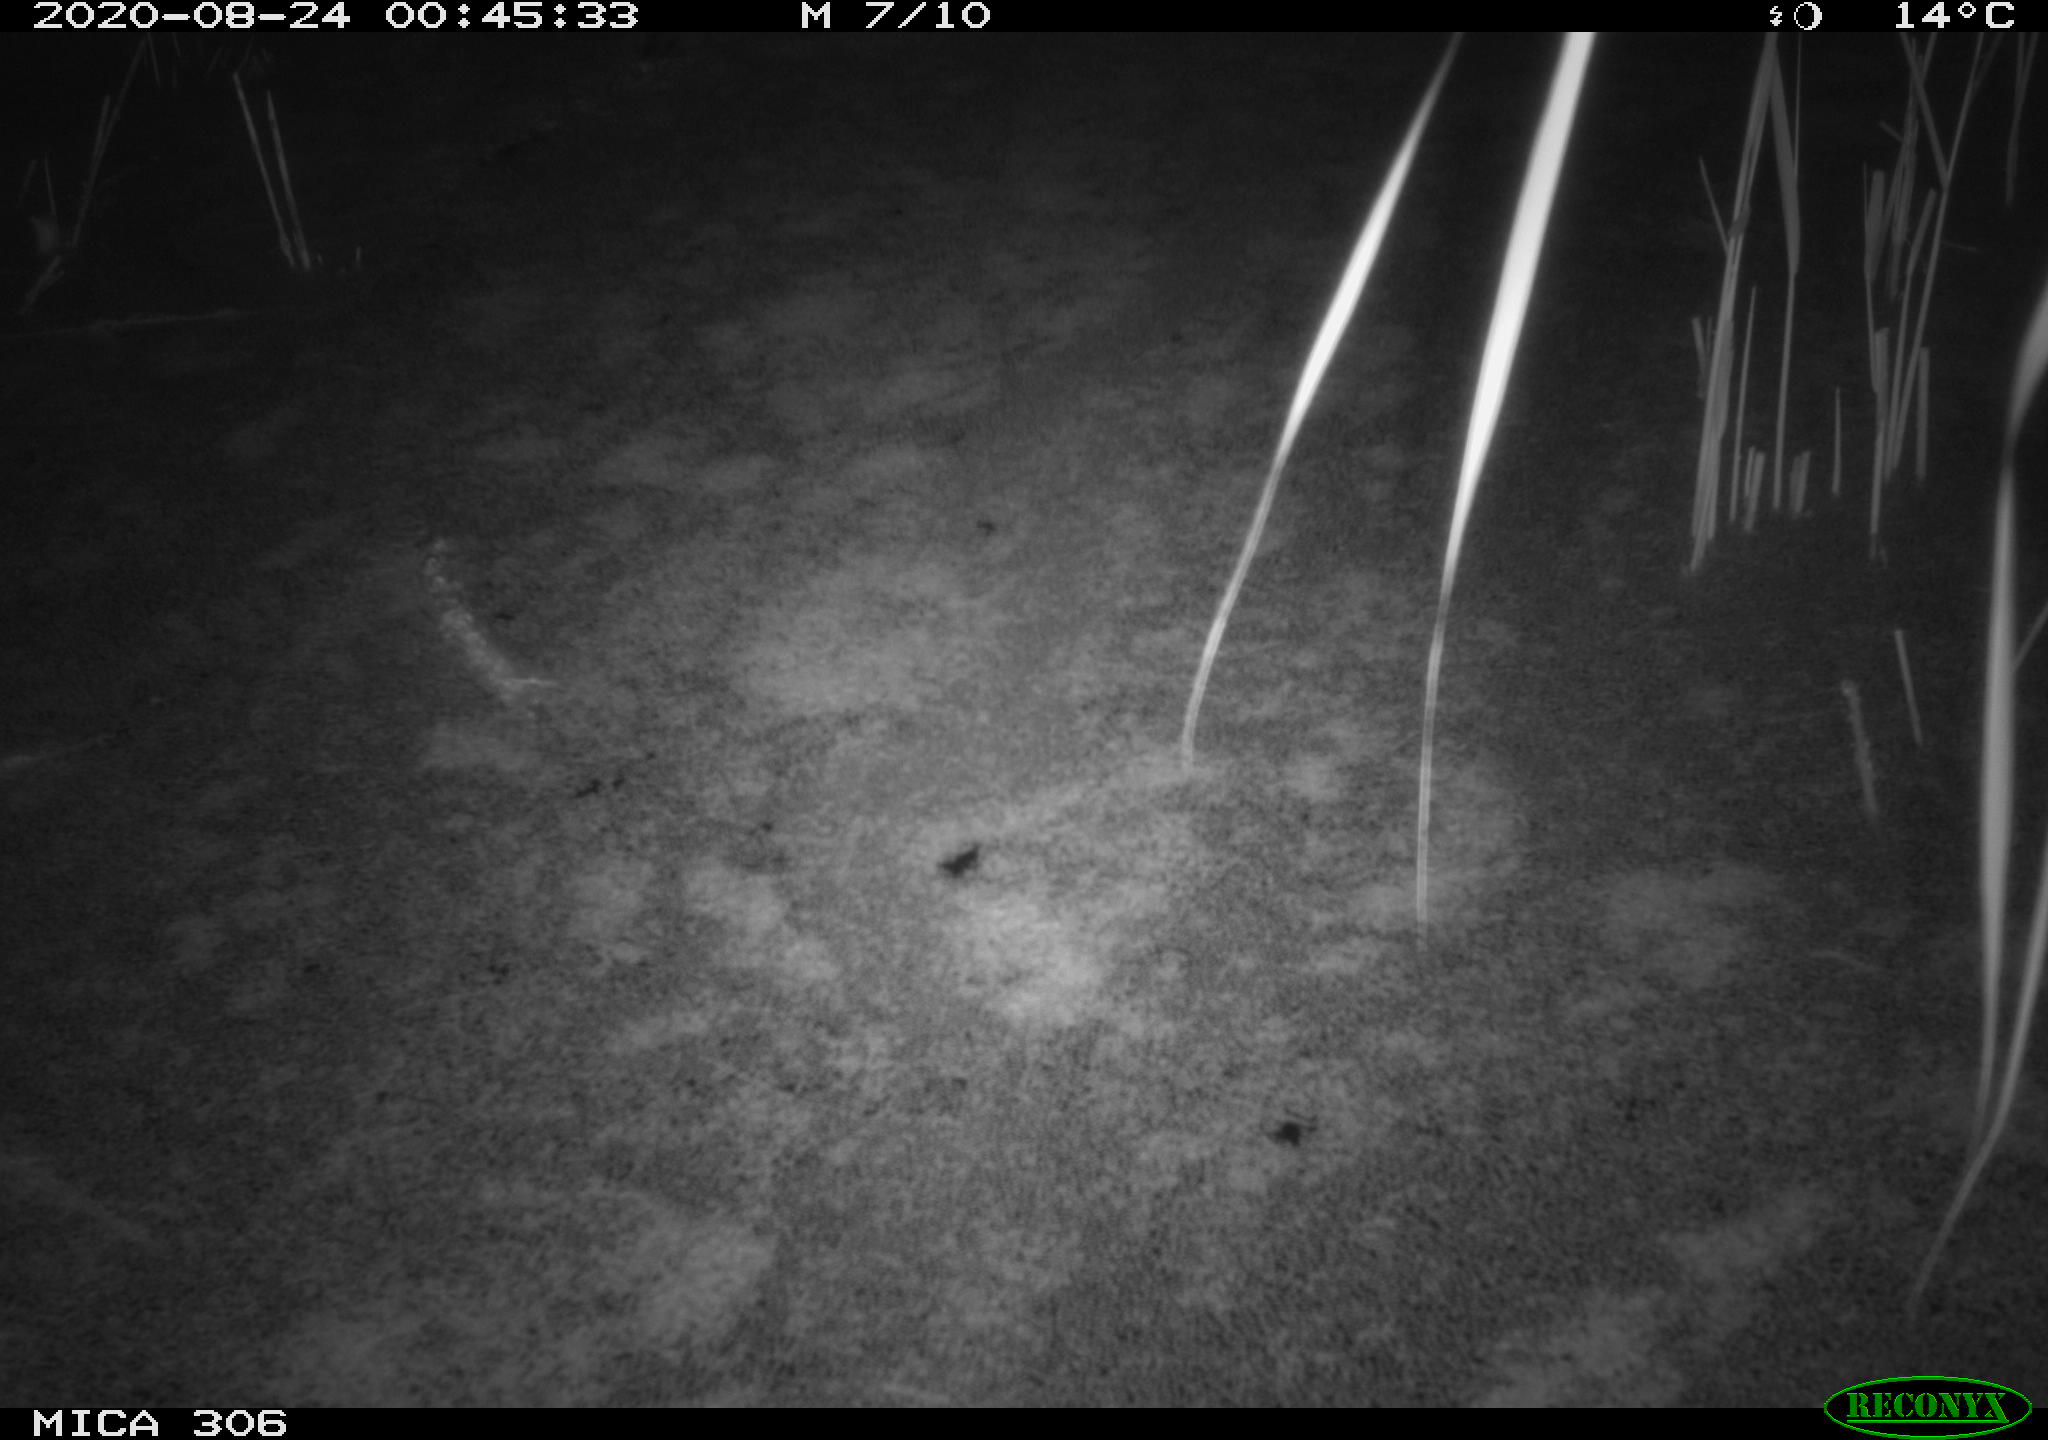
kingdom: Animalia
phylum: Chordata
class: Mammalia
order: Rodentia
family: Muridae
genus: Rattus
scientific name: Rattus norvegicus
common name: Brown rat
